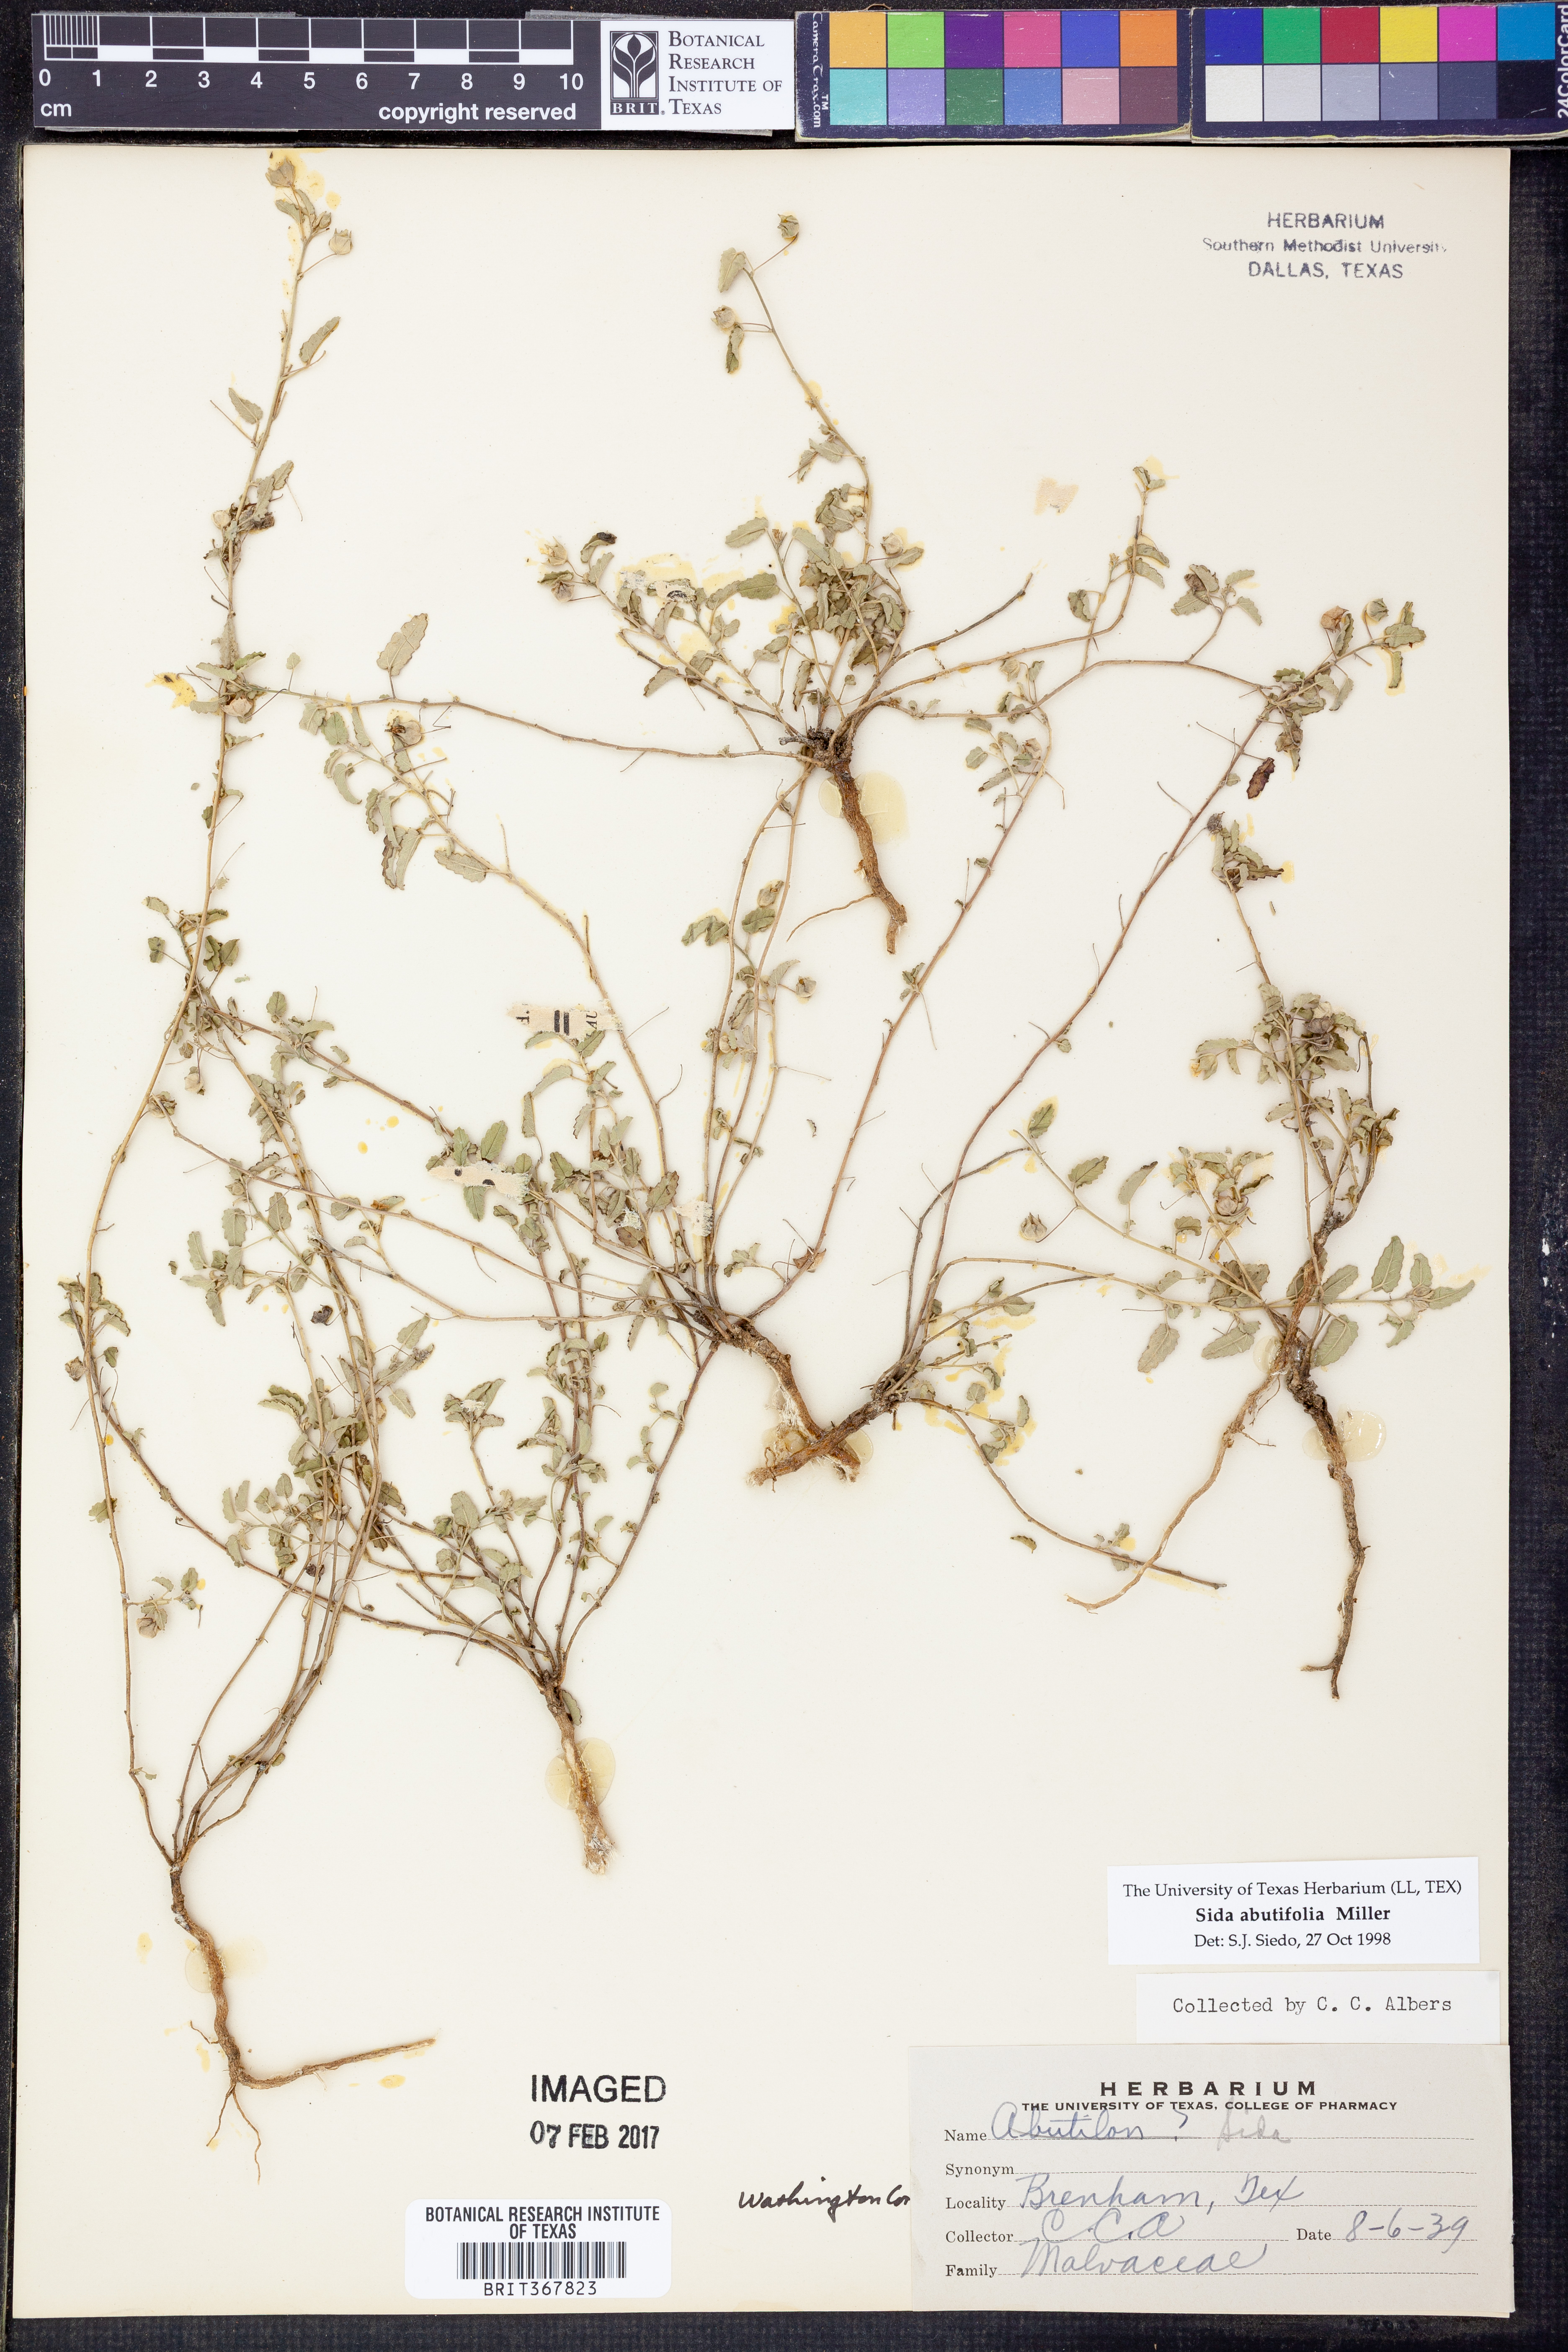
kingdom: Plantae
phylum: Tracheophyta
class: Magnoliopsida
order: Malvales
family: Malvaceae
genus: Sida
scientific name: Sida abutifolia
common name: Spreading fantails
